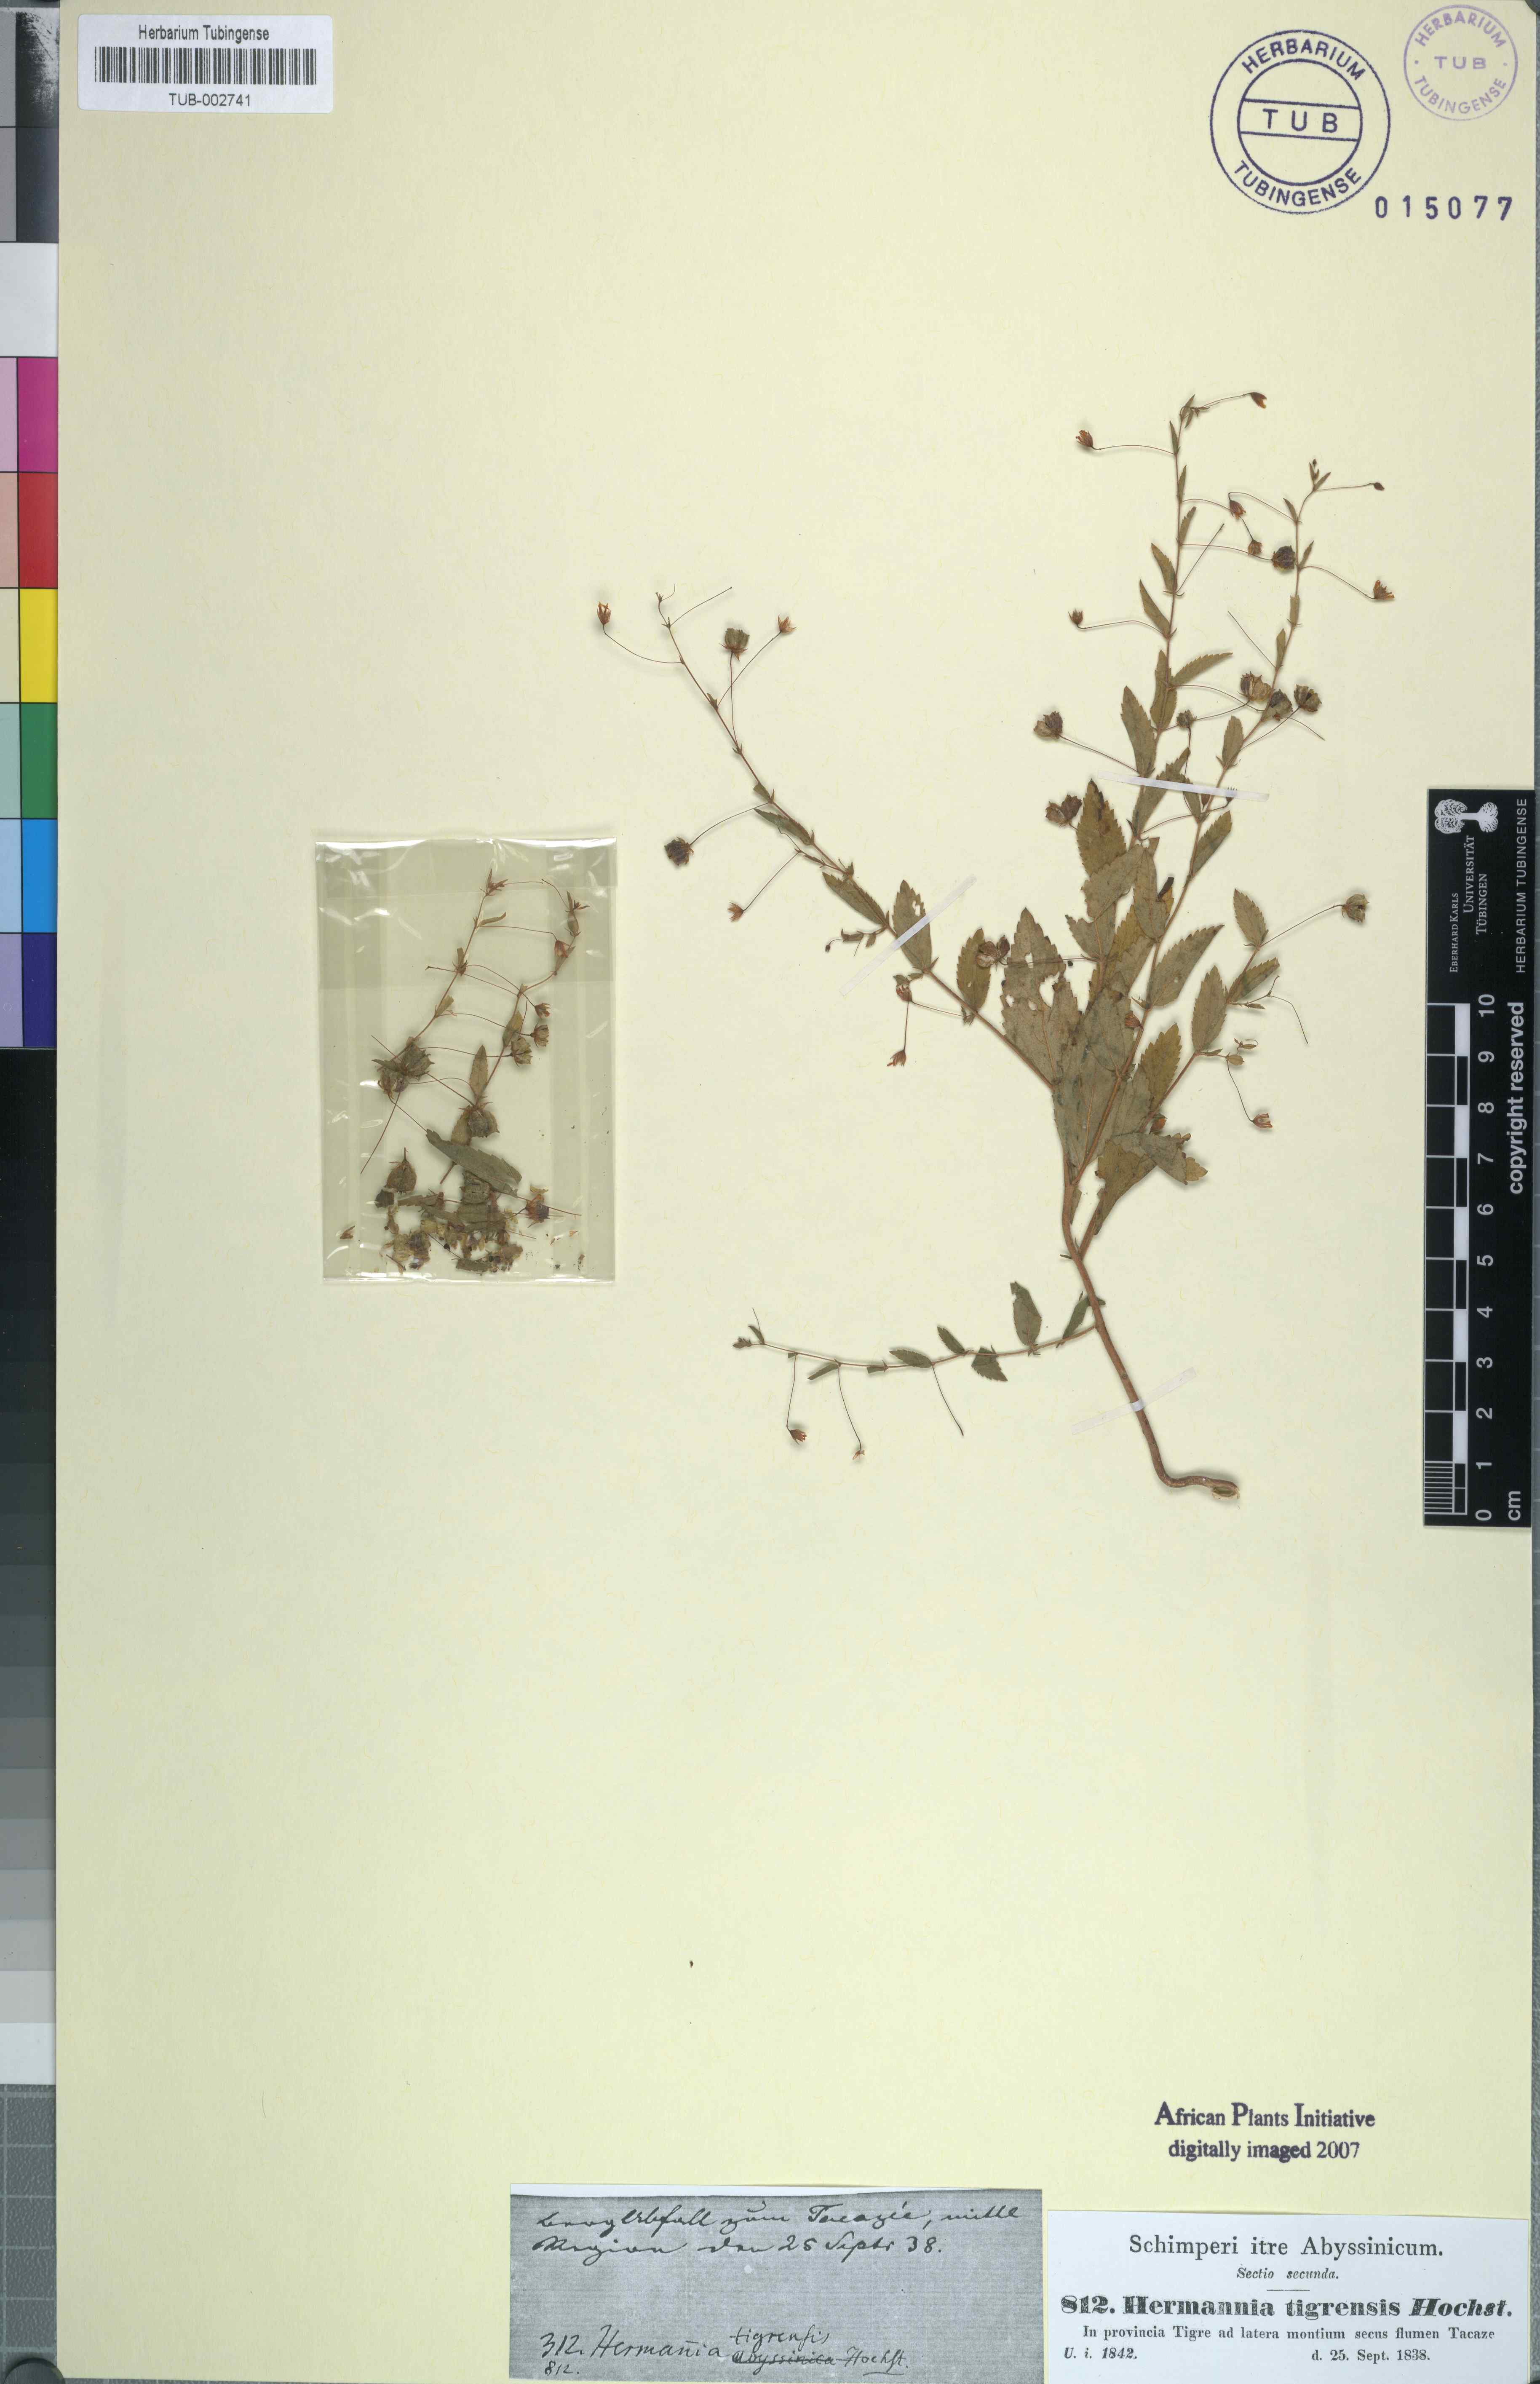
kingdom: Plantae
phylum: Tracheophyta
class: Magnoliopsida
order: Malvales
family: Malvaceae
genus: Hermannia
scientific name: Hermannia tigreensis
